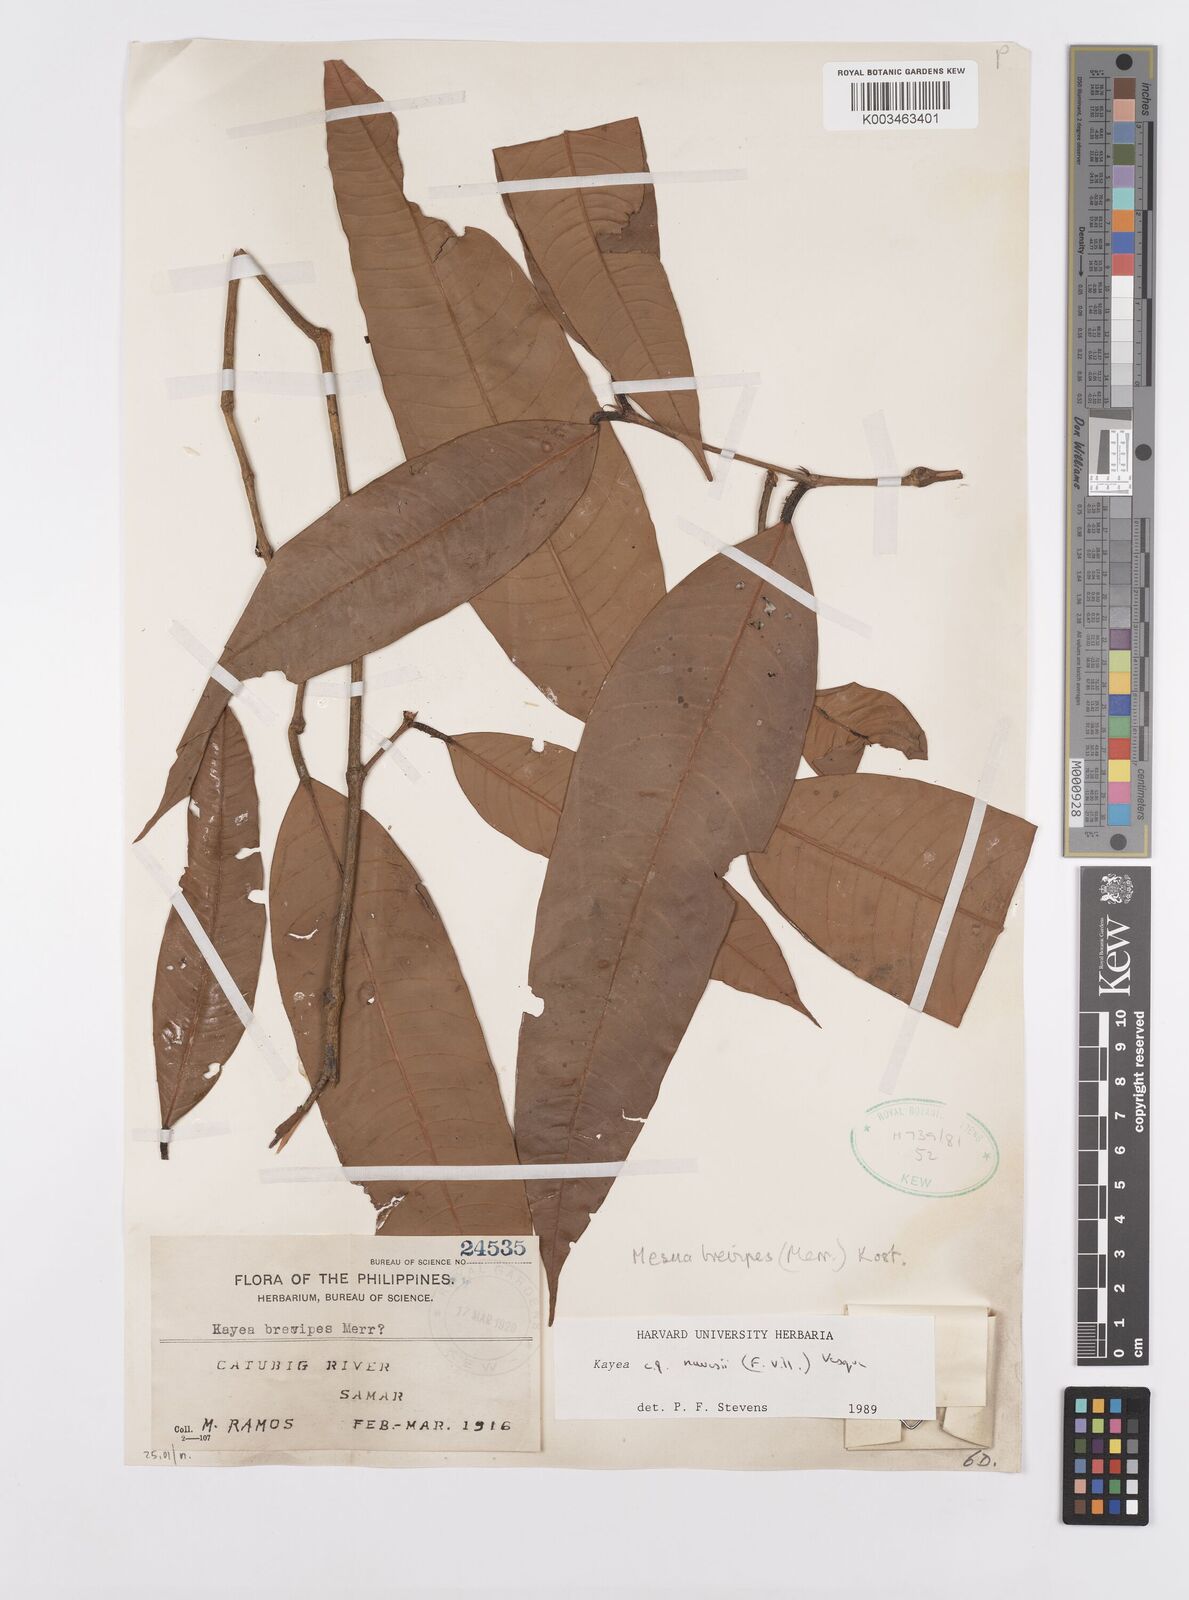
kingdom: Plantae
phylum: Tracheophyta
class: Magnoliopsida
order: Malpighiales
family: Calophyllaceae
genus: Kayea
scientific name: Kayea navesii
